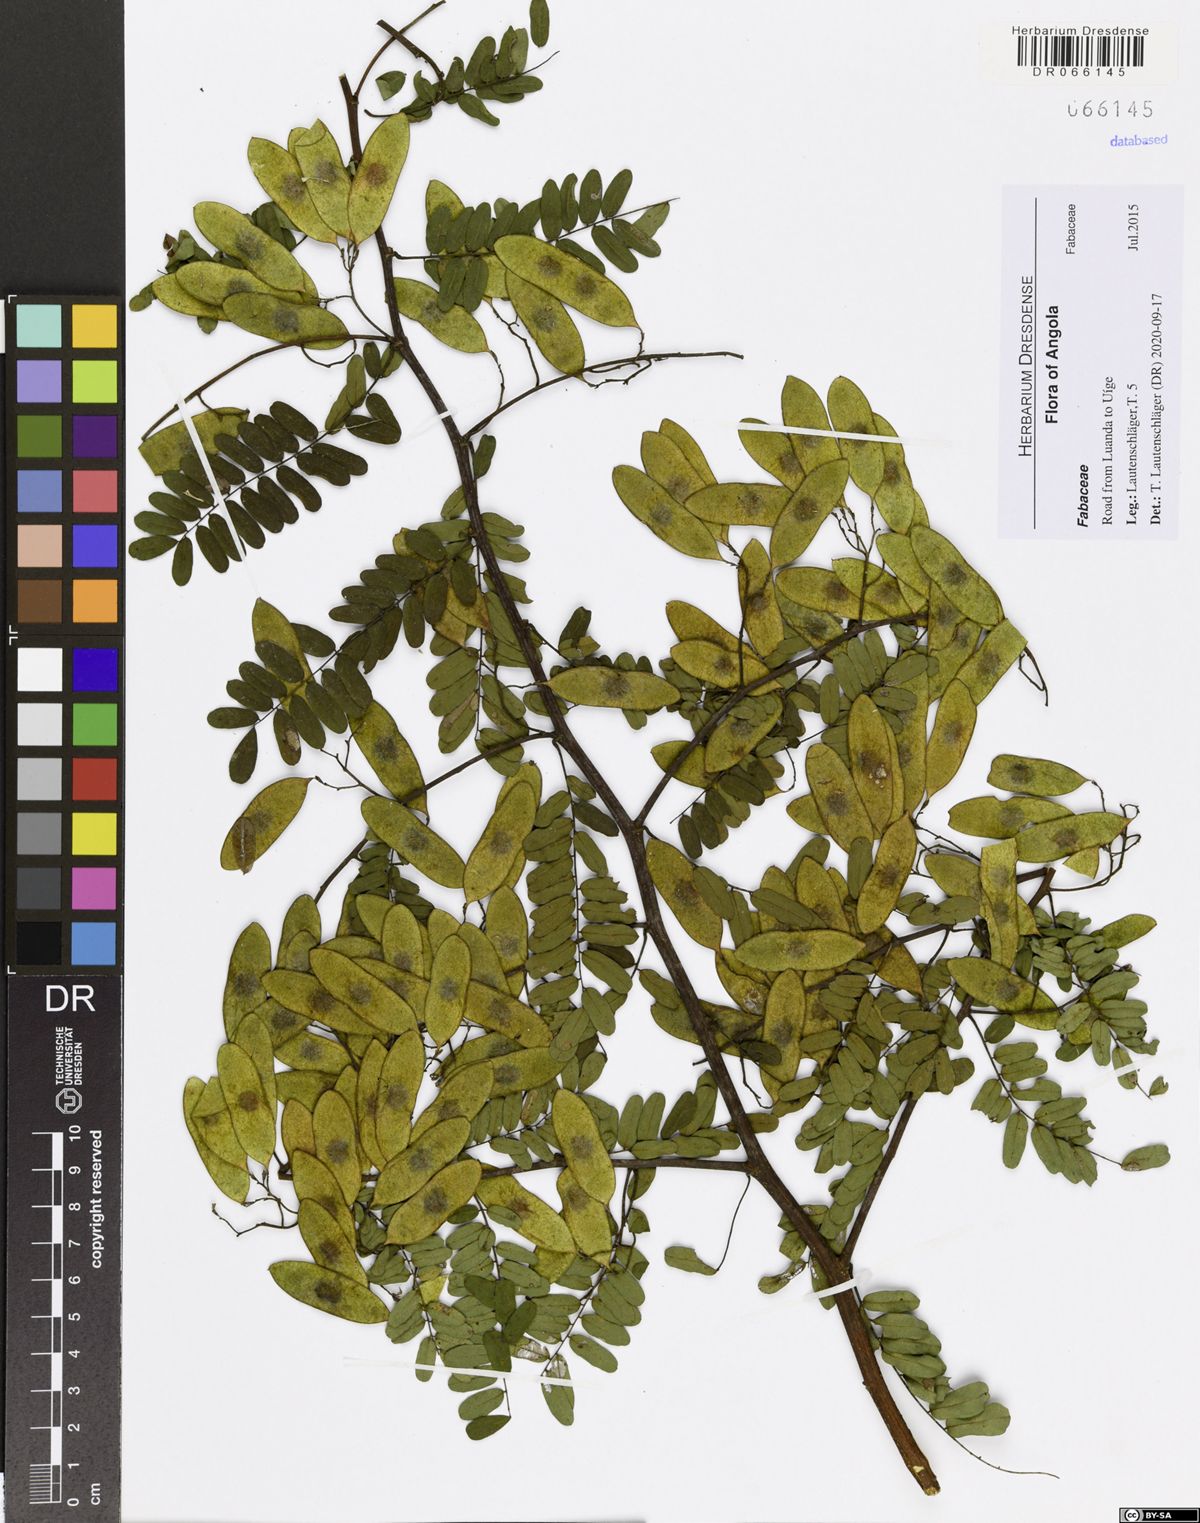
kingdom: Plantae
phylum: Tracheophyta
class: Magnoliopsida
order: Fabales
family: Fabaceae
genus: Dalbergia
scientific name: Dalbergia hostilis
